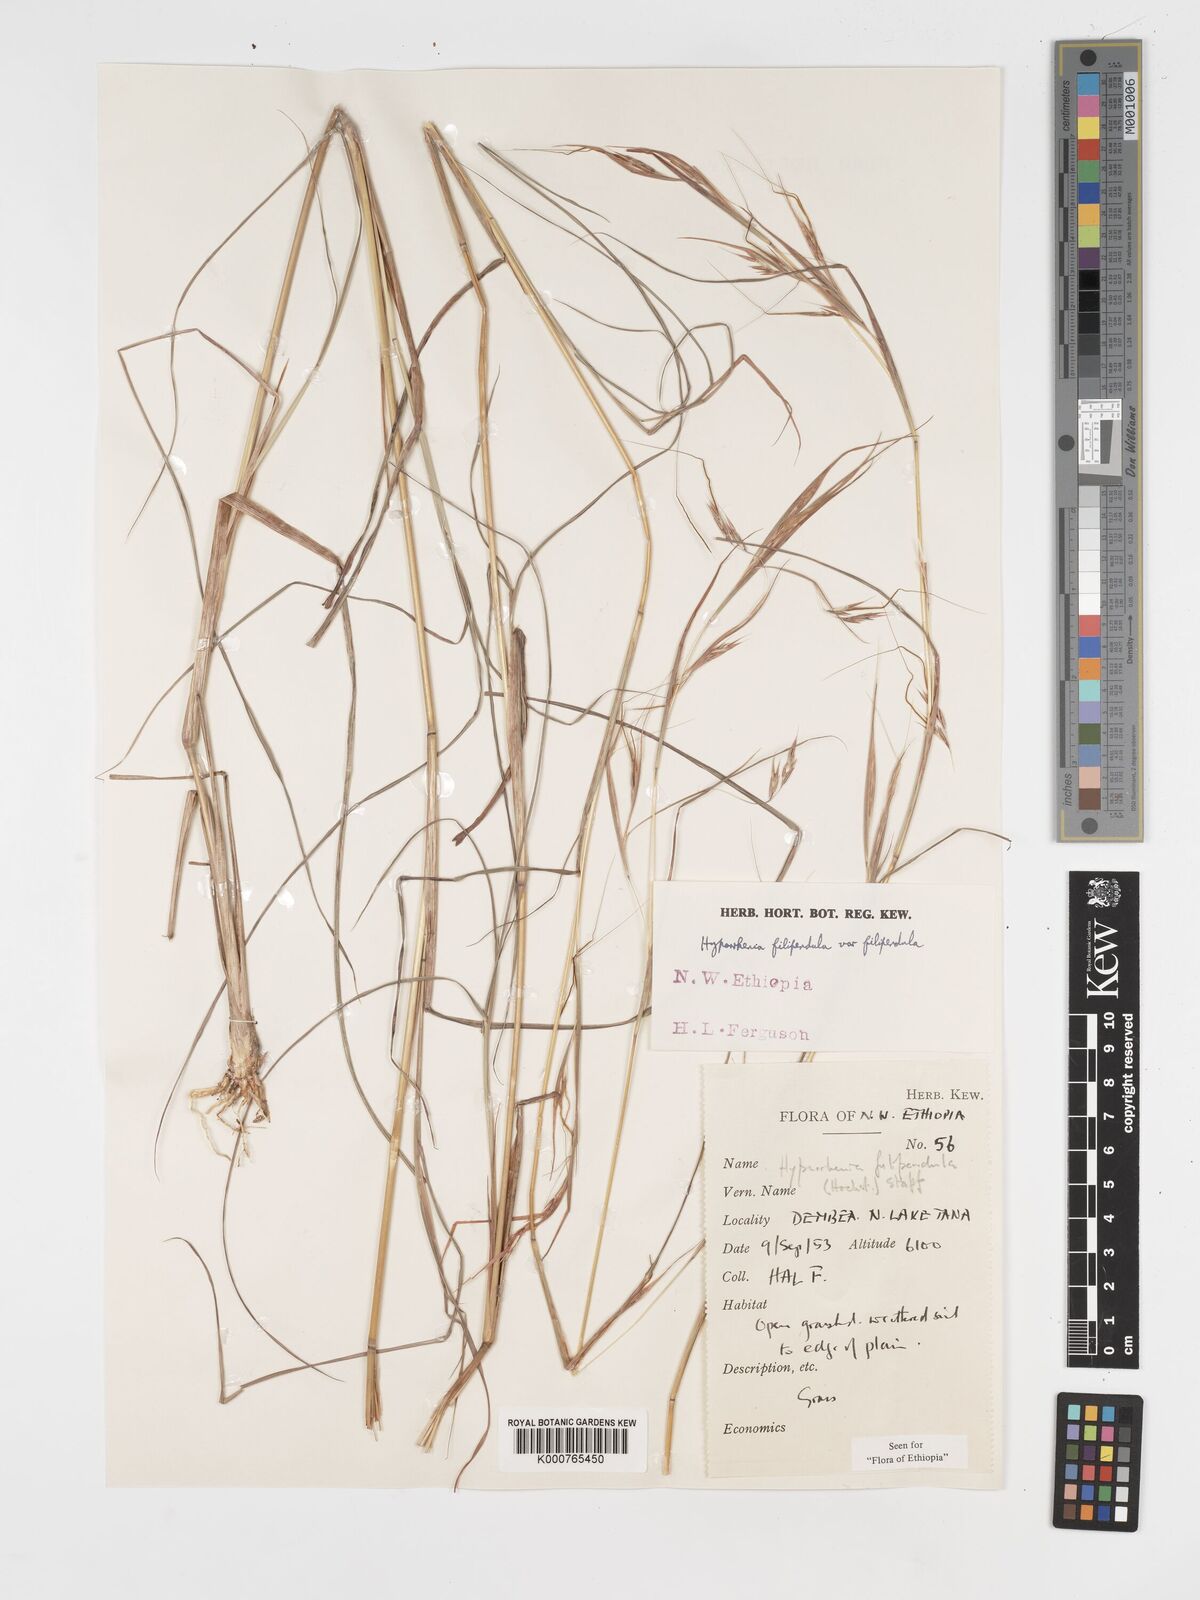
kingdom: Plantae
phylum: Tracheophyta
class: Liliopsida
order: Poales
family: Poaceae
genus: Hyparrhenia
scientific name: Hyparrhenia filipendula
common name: Tambookie grass
